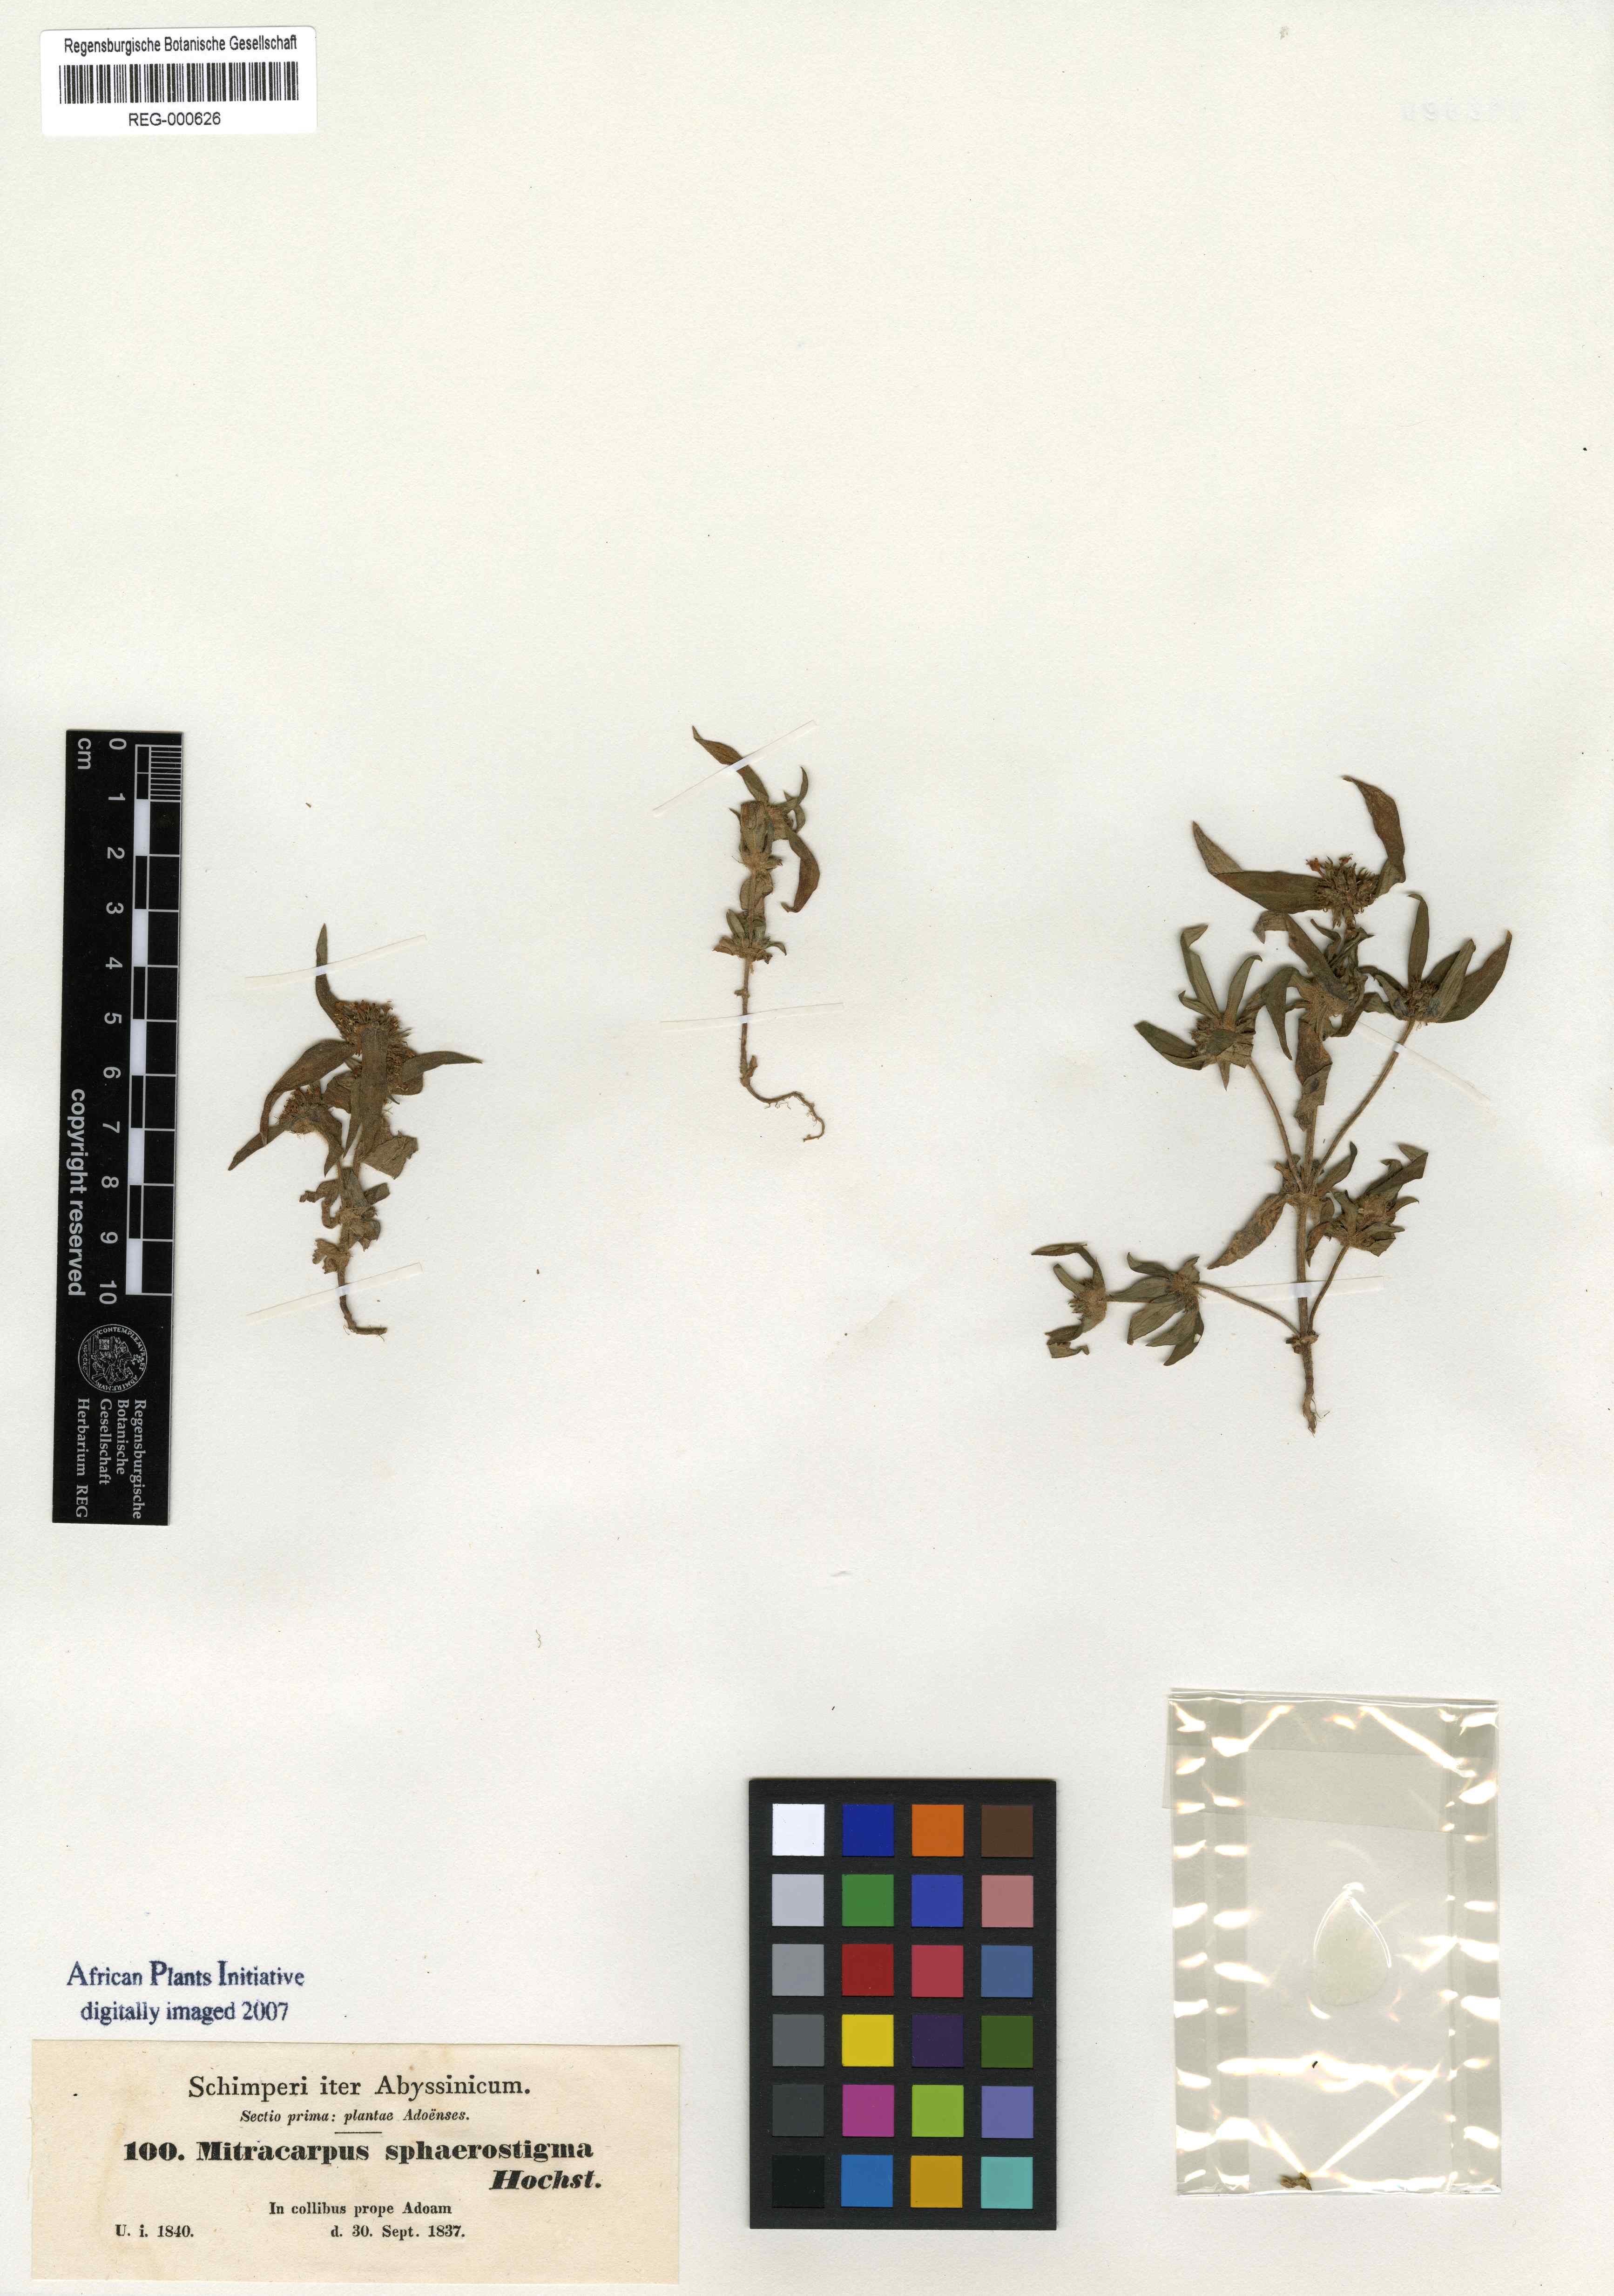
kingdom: Plantae
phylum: Tracheophyta
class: Magnoliopsida
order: Gentianales
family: Rubiaceae
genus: Mitracarpus
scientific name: Mitracarpus sphaerostigma
